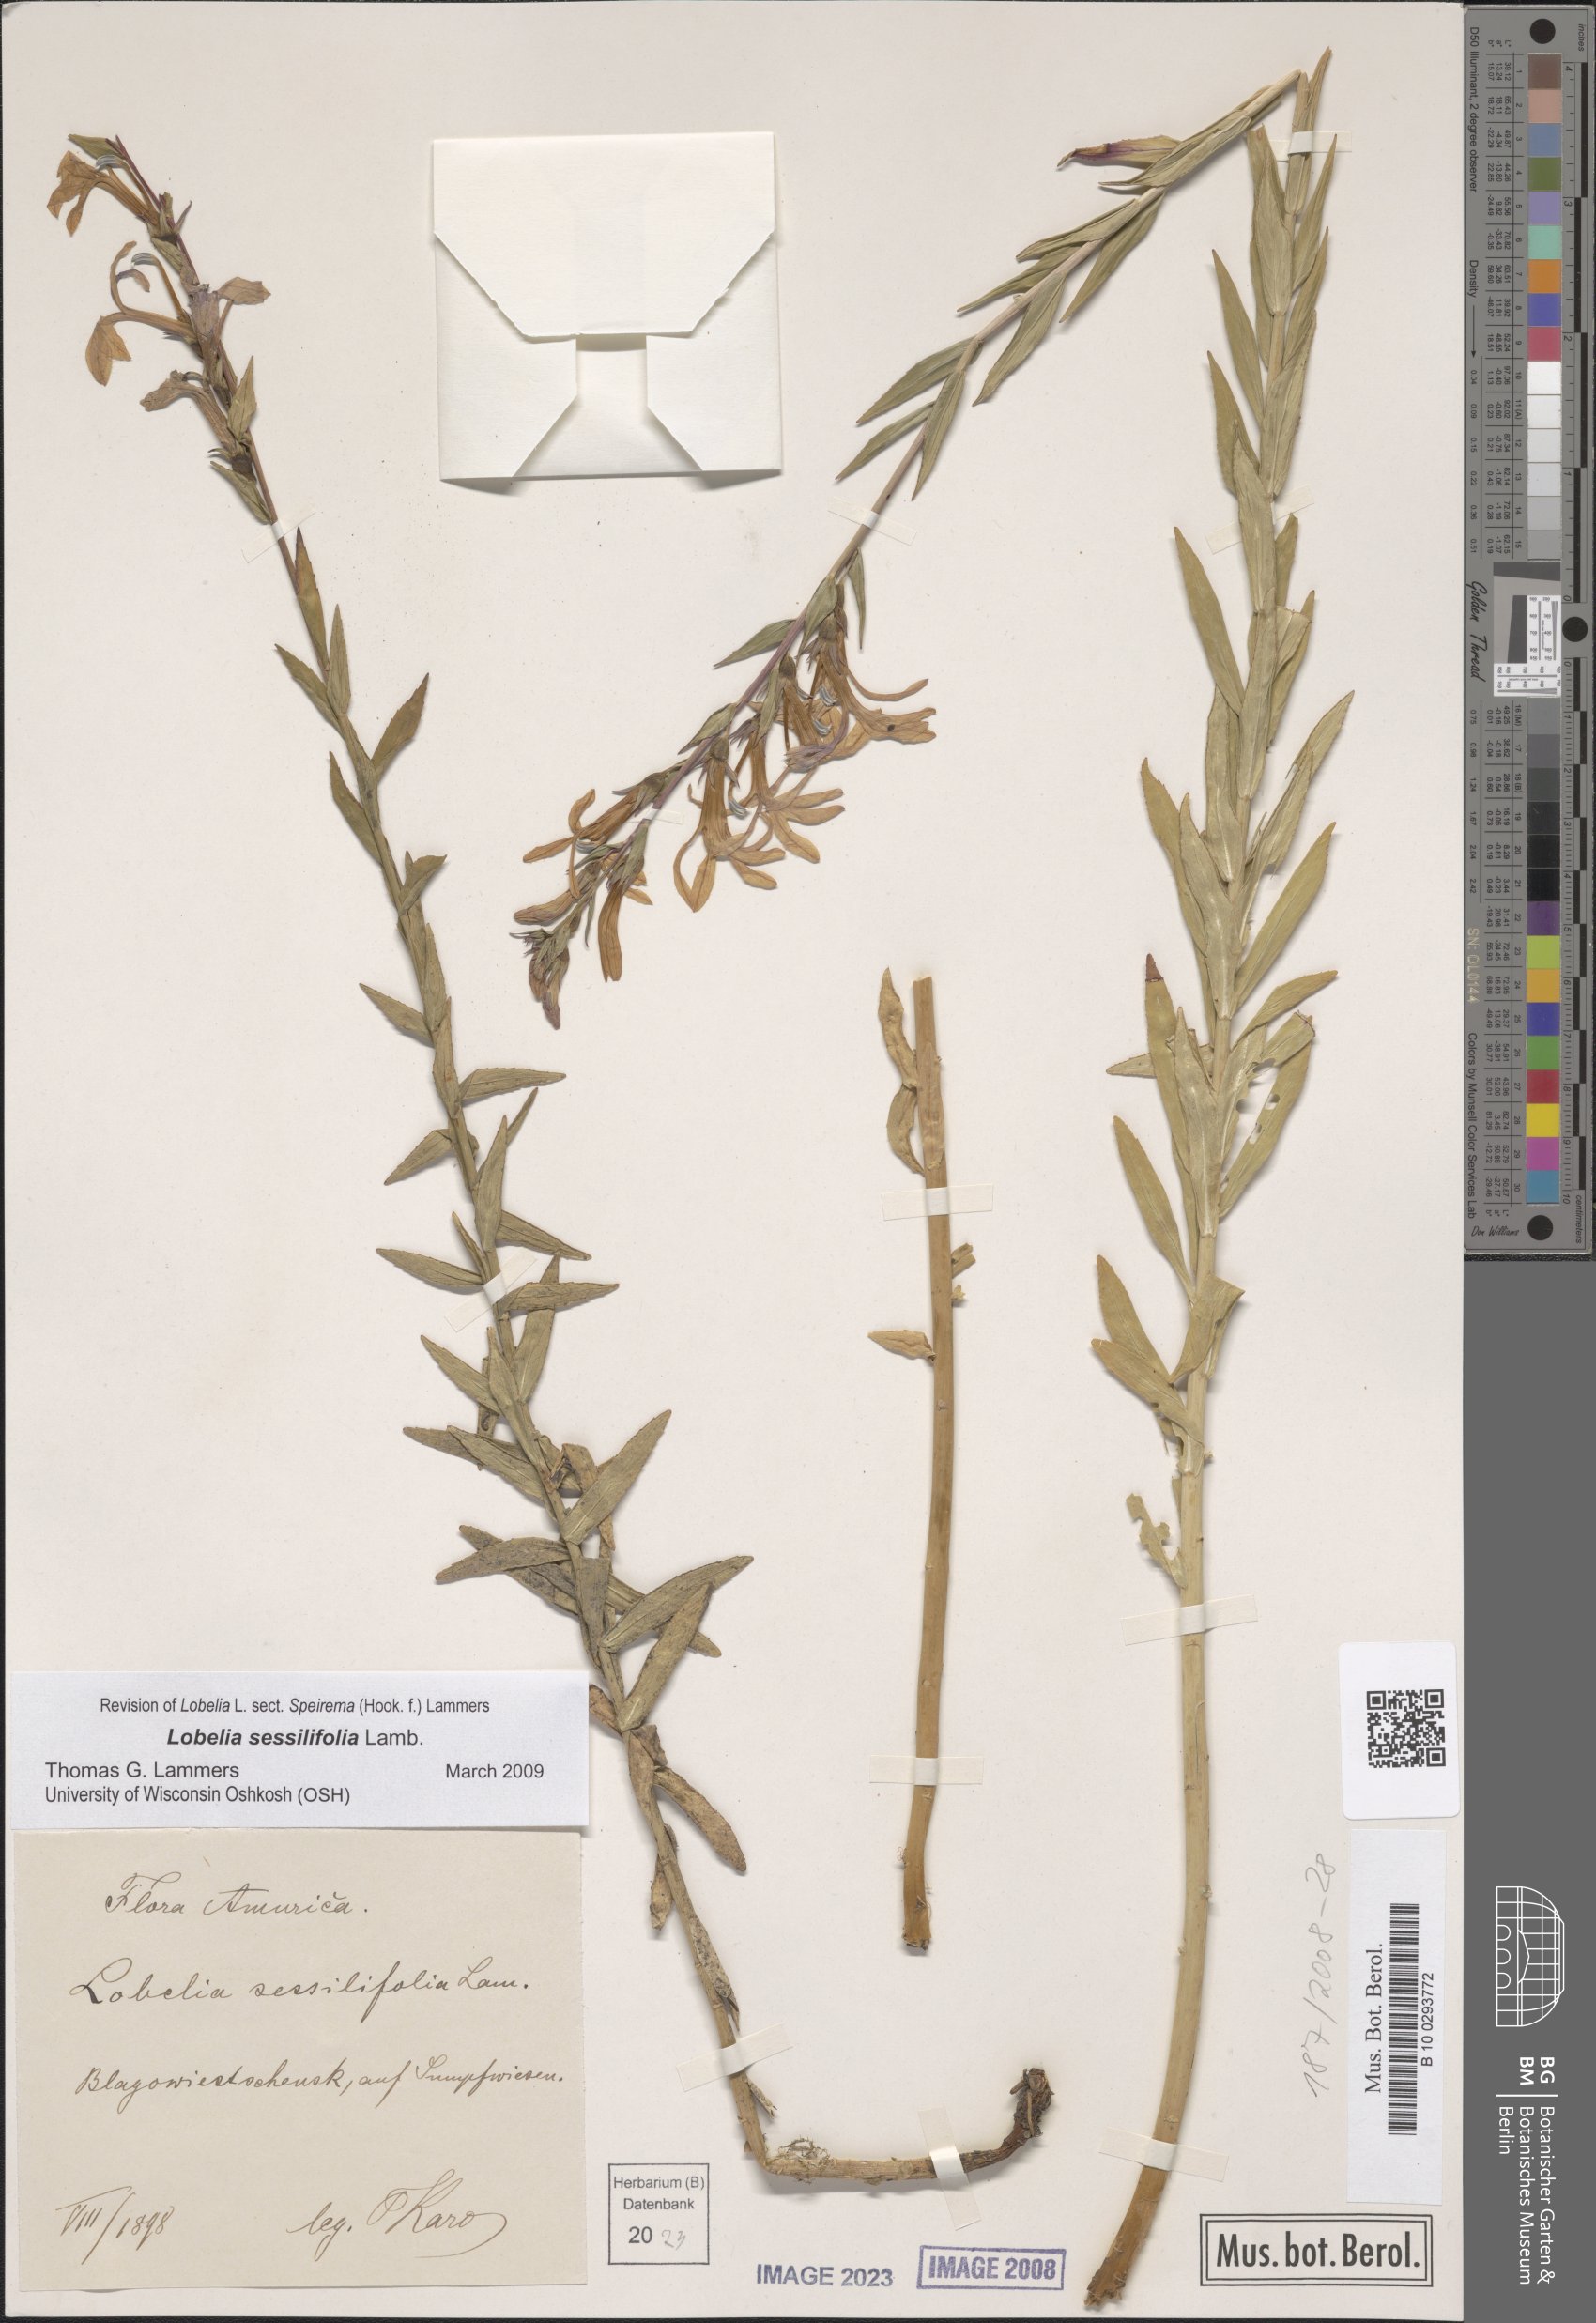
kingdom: Plantae
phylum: Tracheophyta
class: Magnoliopsida
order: Asterales
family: Campanulaceae
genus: Lobelia
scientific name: Lobelia sessilifolia
